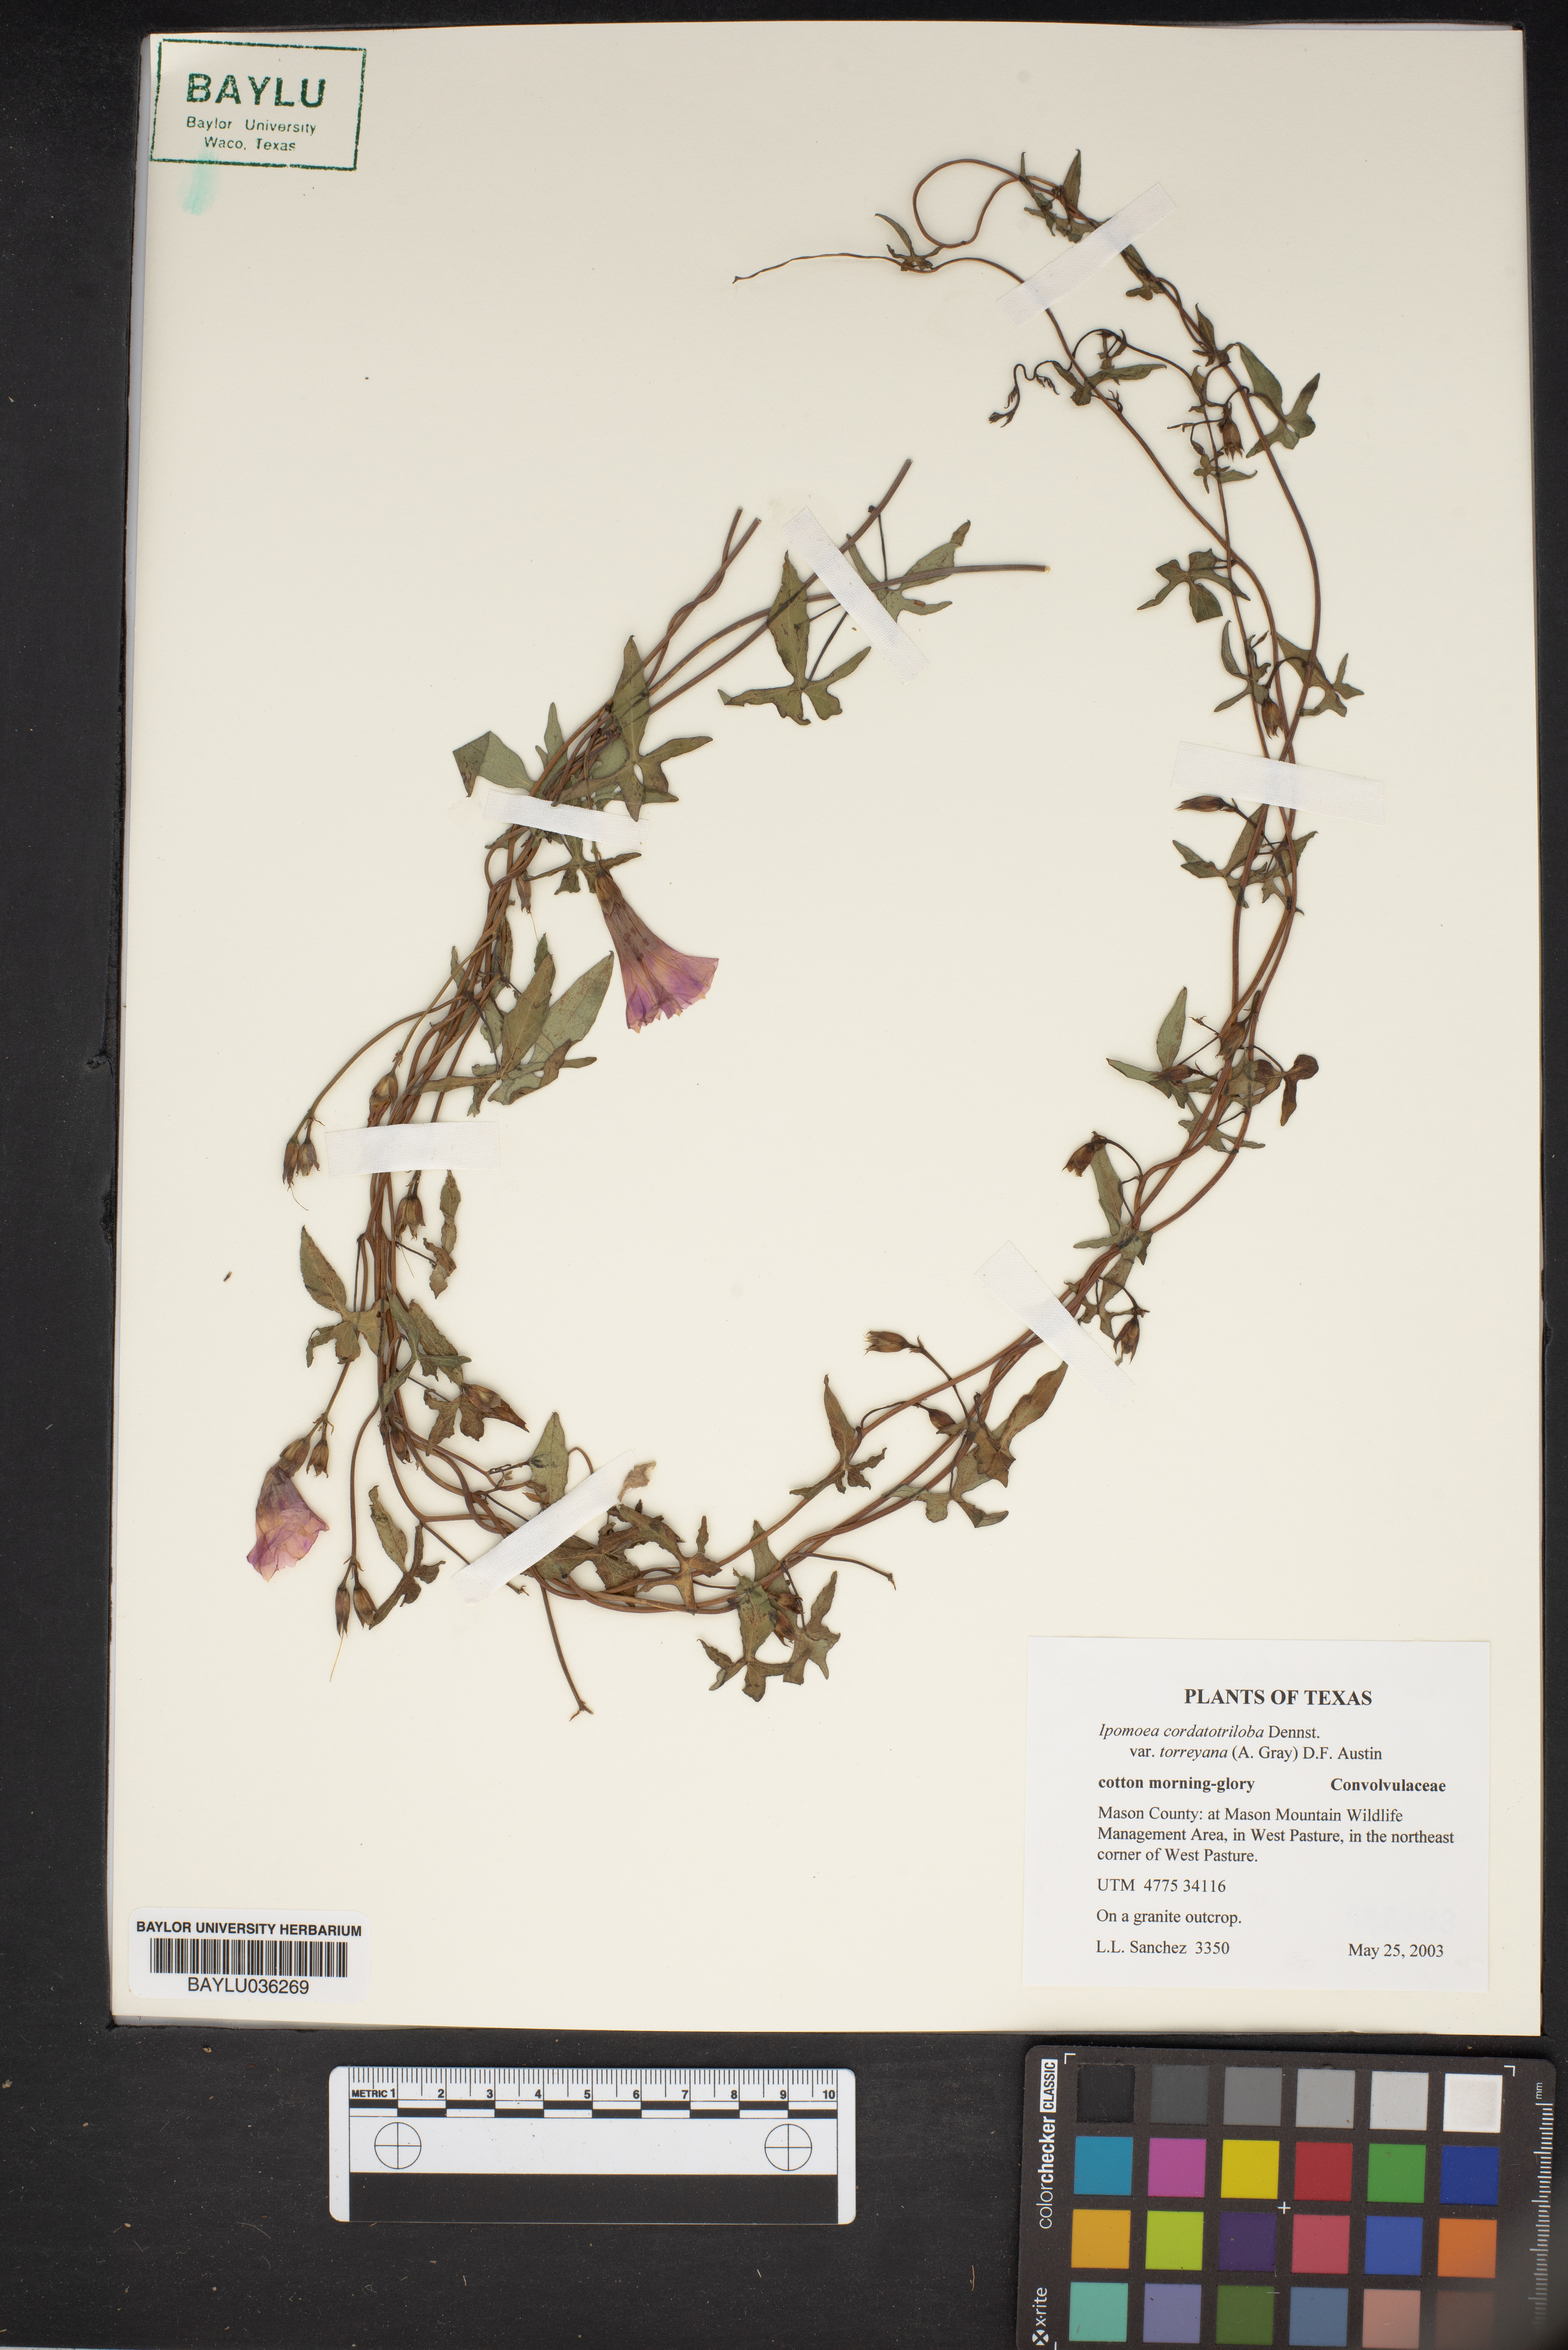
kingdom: Plantae
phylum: Tracheophyta
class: Magnoliopsida
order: Solanales
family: Convolvulaceae
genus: Ipomoea
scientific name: Ipomoea cordatotriloba
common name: Cotton morning glory
